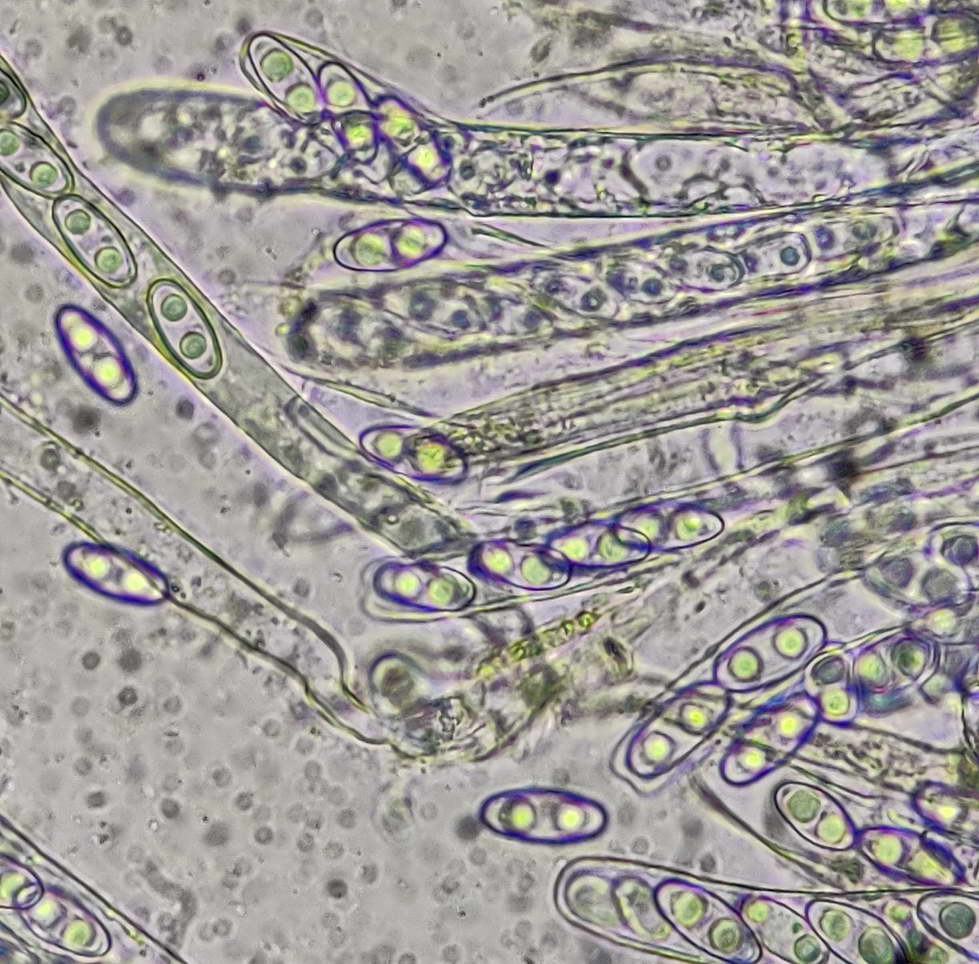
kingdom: Fungi
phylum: Ascomycota
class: Pezizomycetes
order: Pezizales
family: Otideaceae
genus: Otidea
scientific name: Otidea bufonia
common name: brun ørebæger
